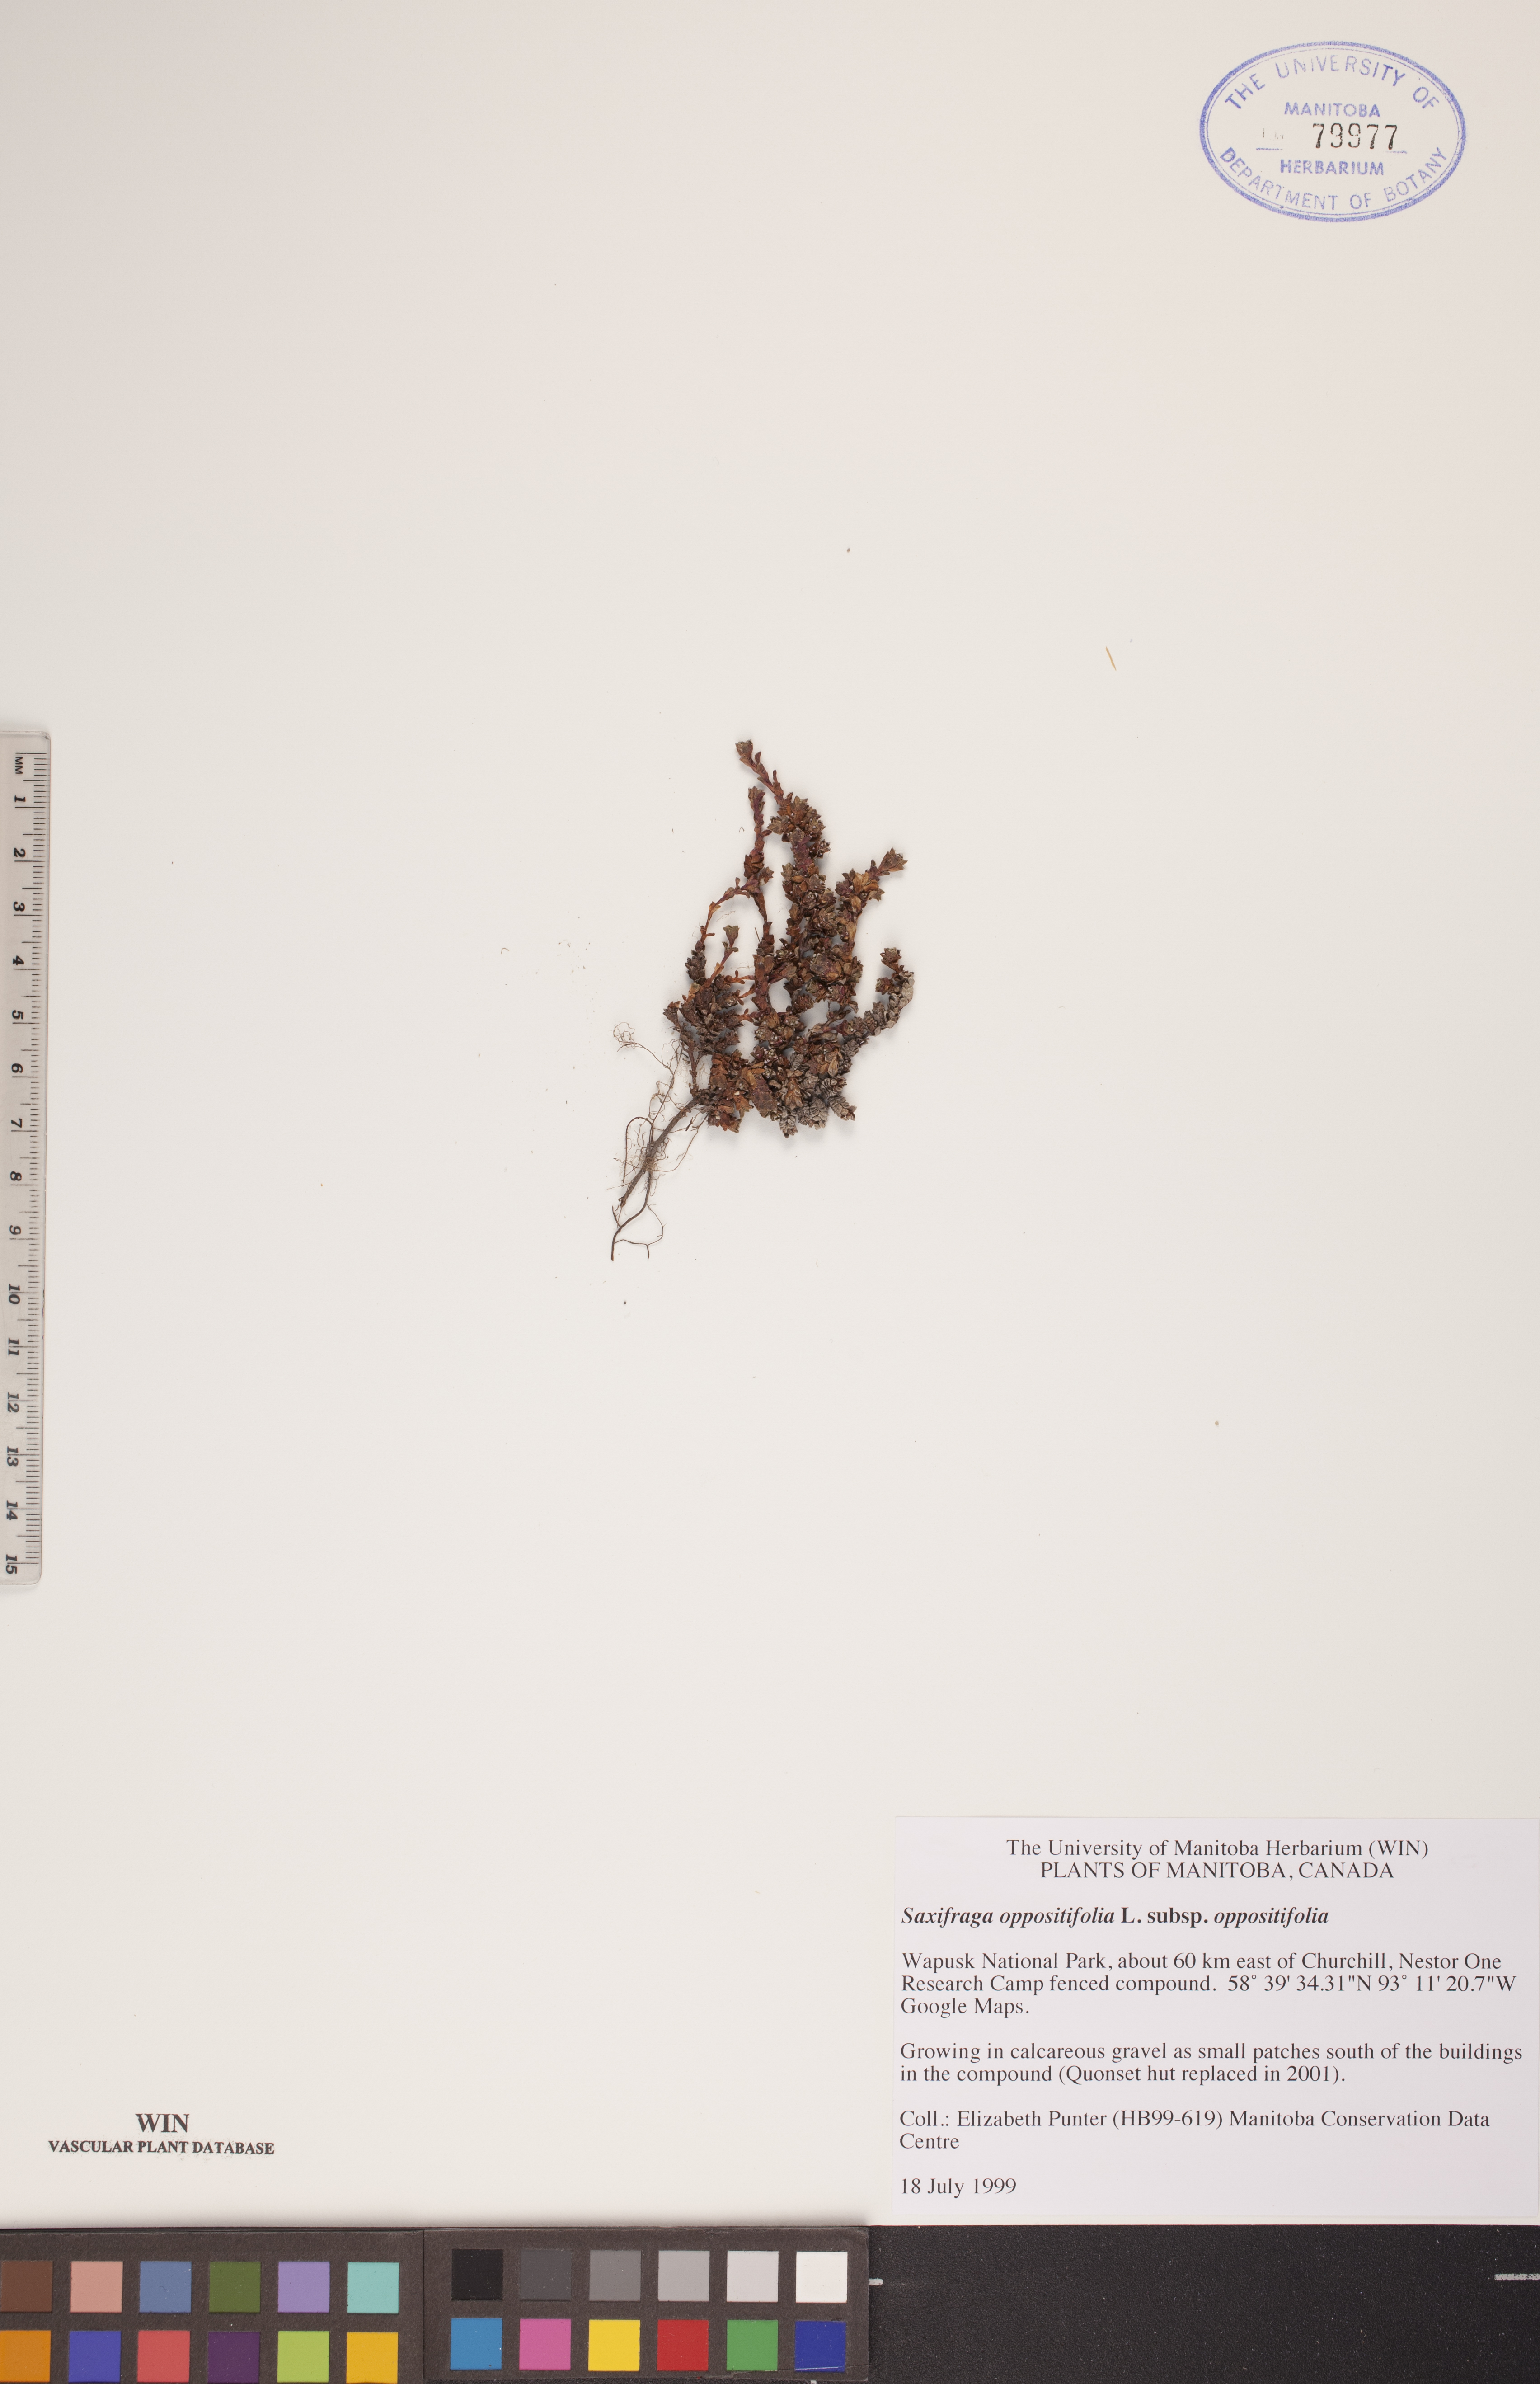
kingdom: Plantae
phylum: Tracheophyta
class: Magnoliopsida
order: Saxifragales
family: Saxifragaceae
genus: Saxifraga
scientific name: Saxifraga oppositifolia
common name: Purple saxifrage
